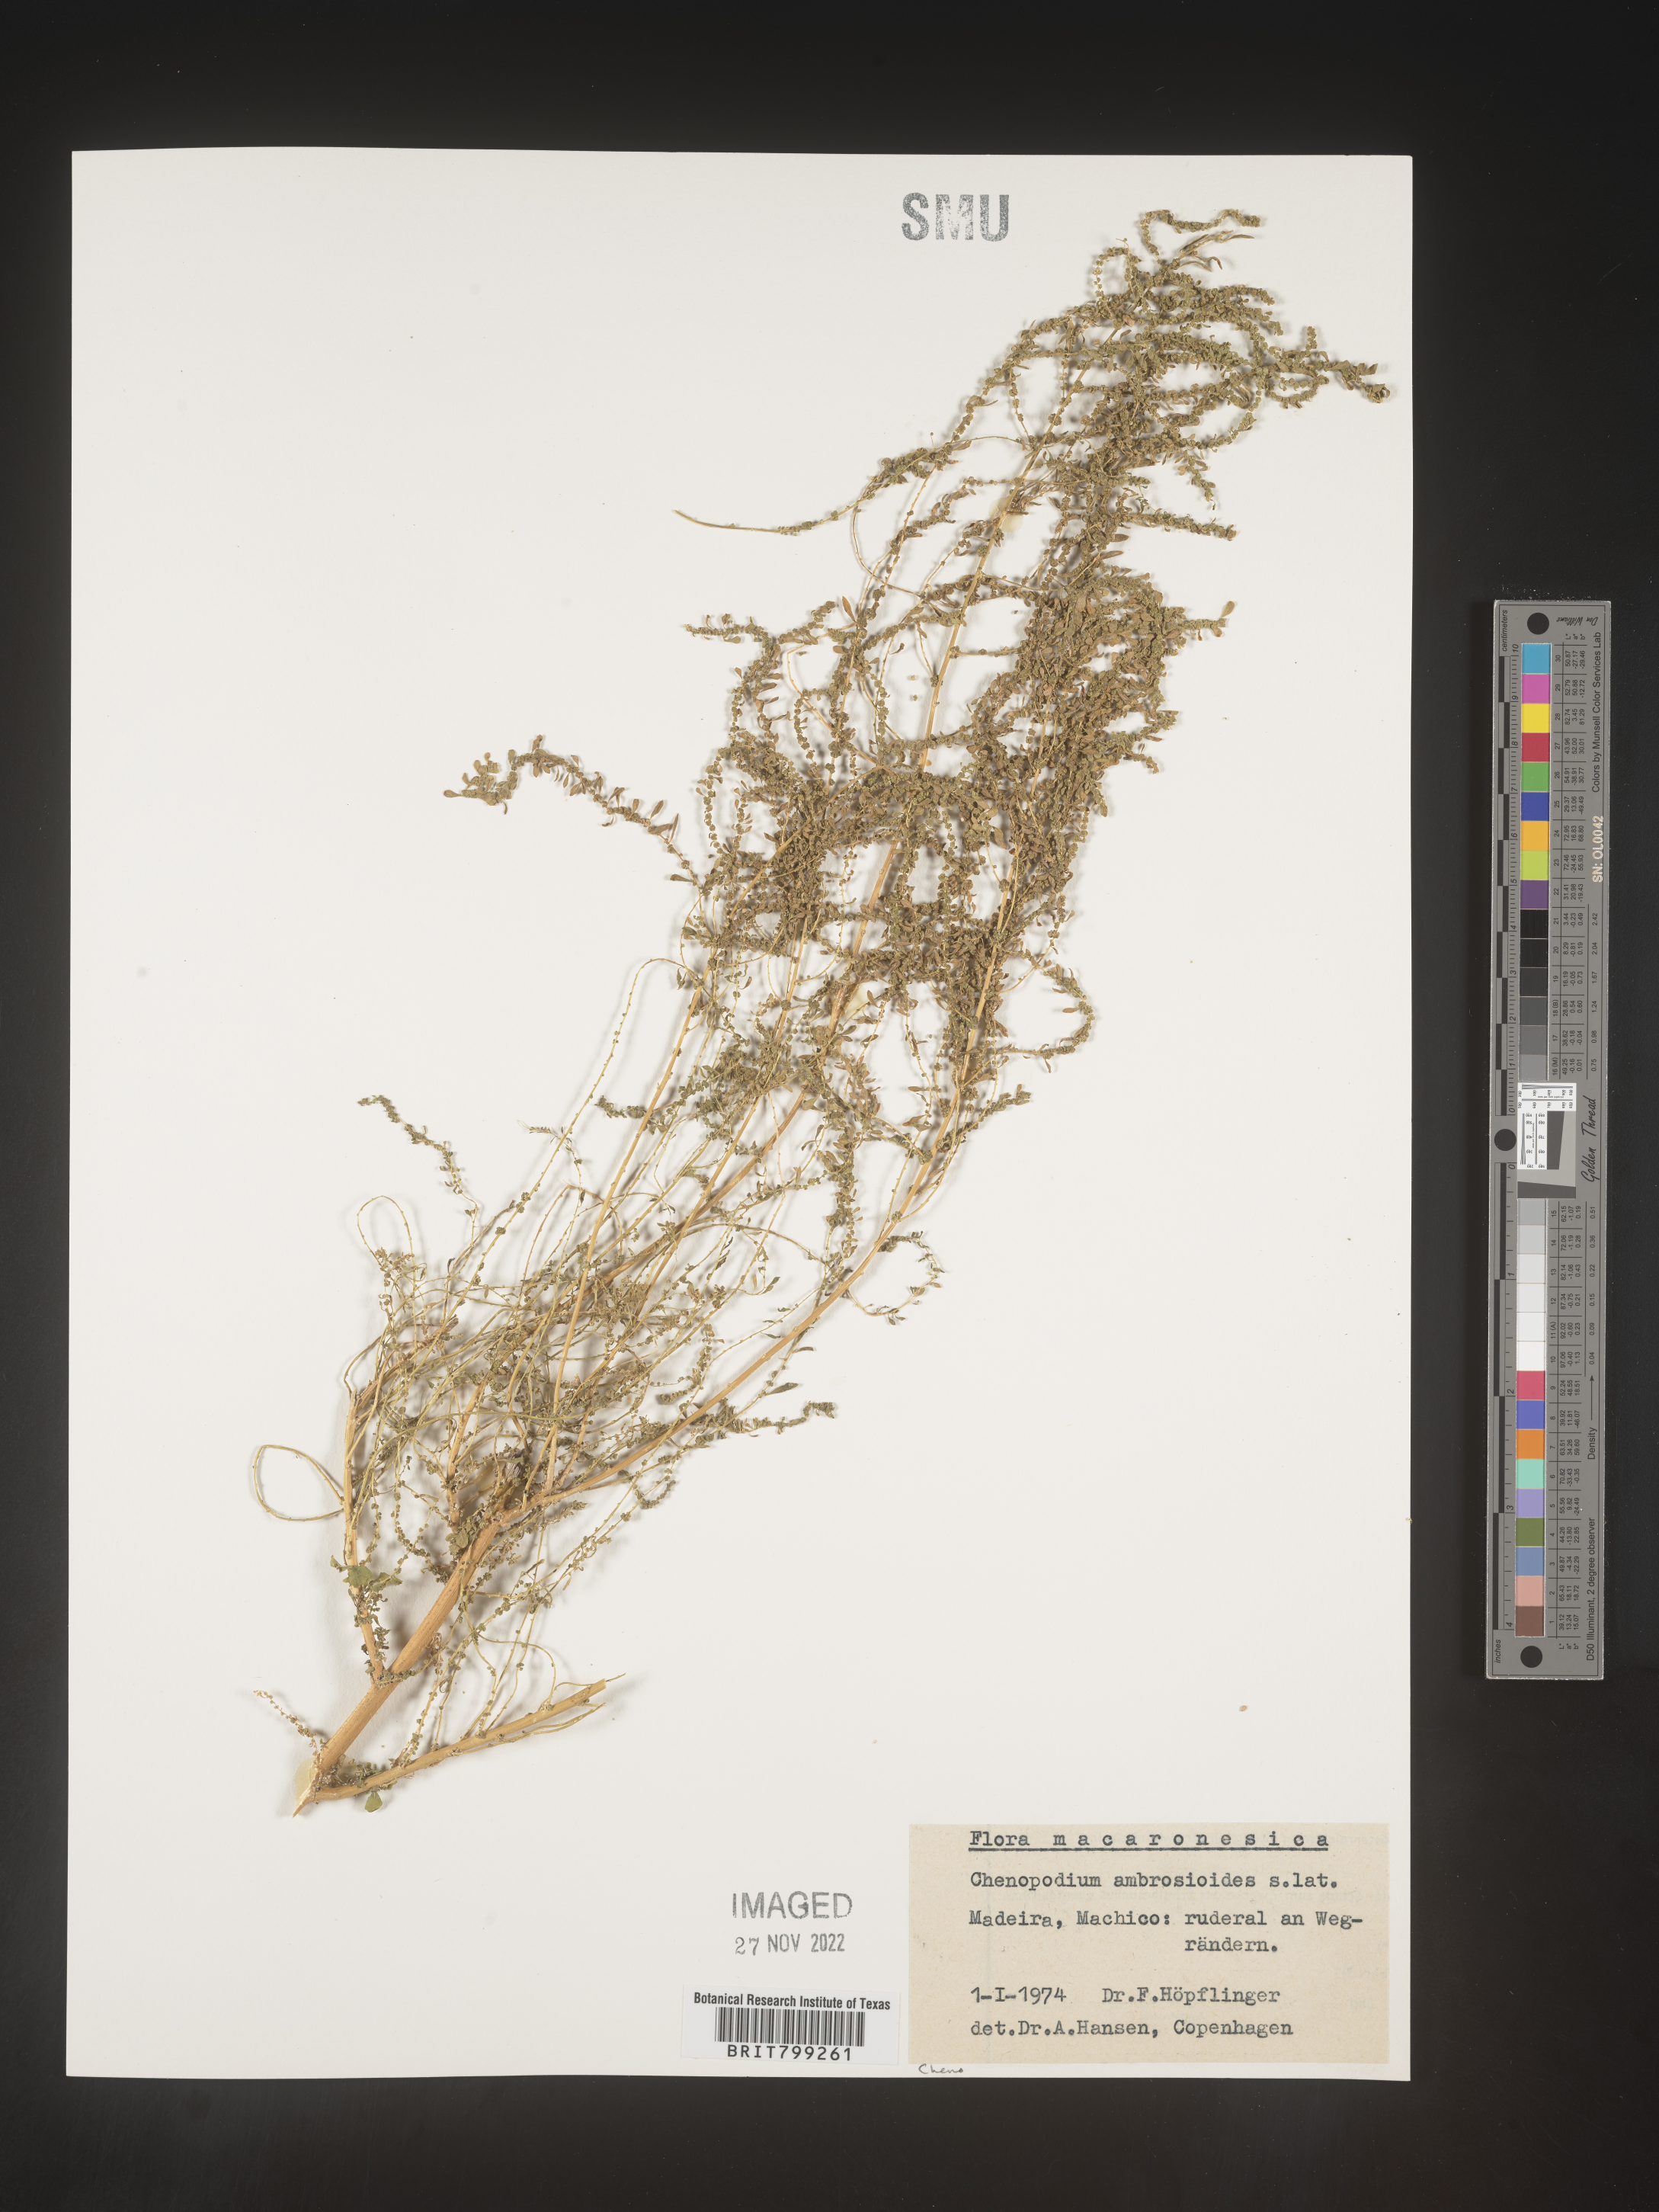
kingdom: Plantae
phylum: Tracheophyta
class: Magnoliopsida
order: Caryophyllales
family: Amaranthaceae
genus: Chenopodium
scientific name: Chenopodium
